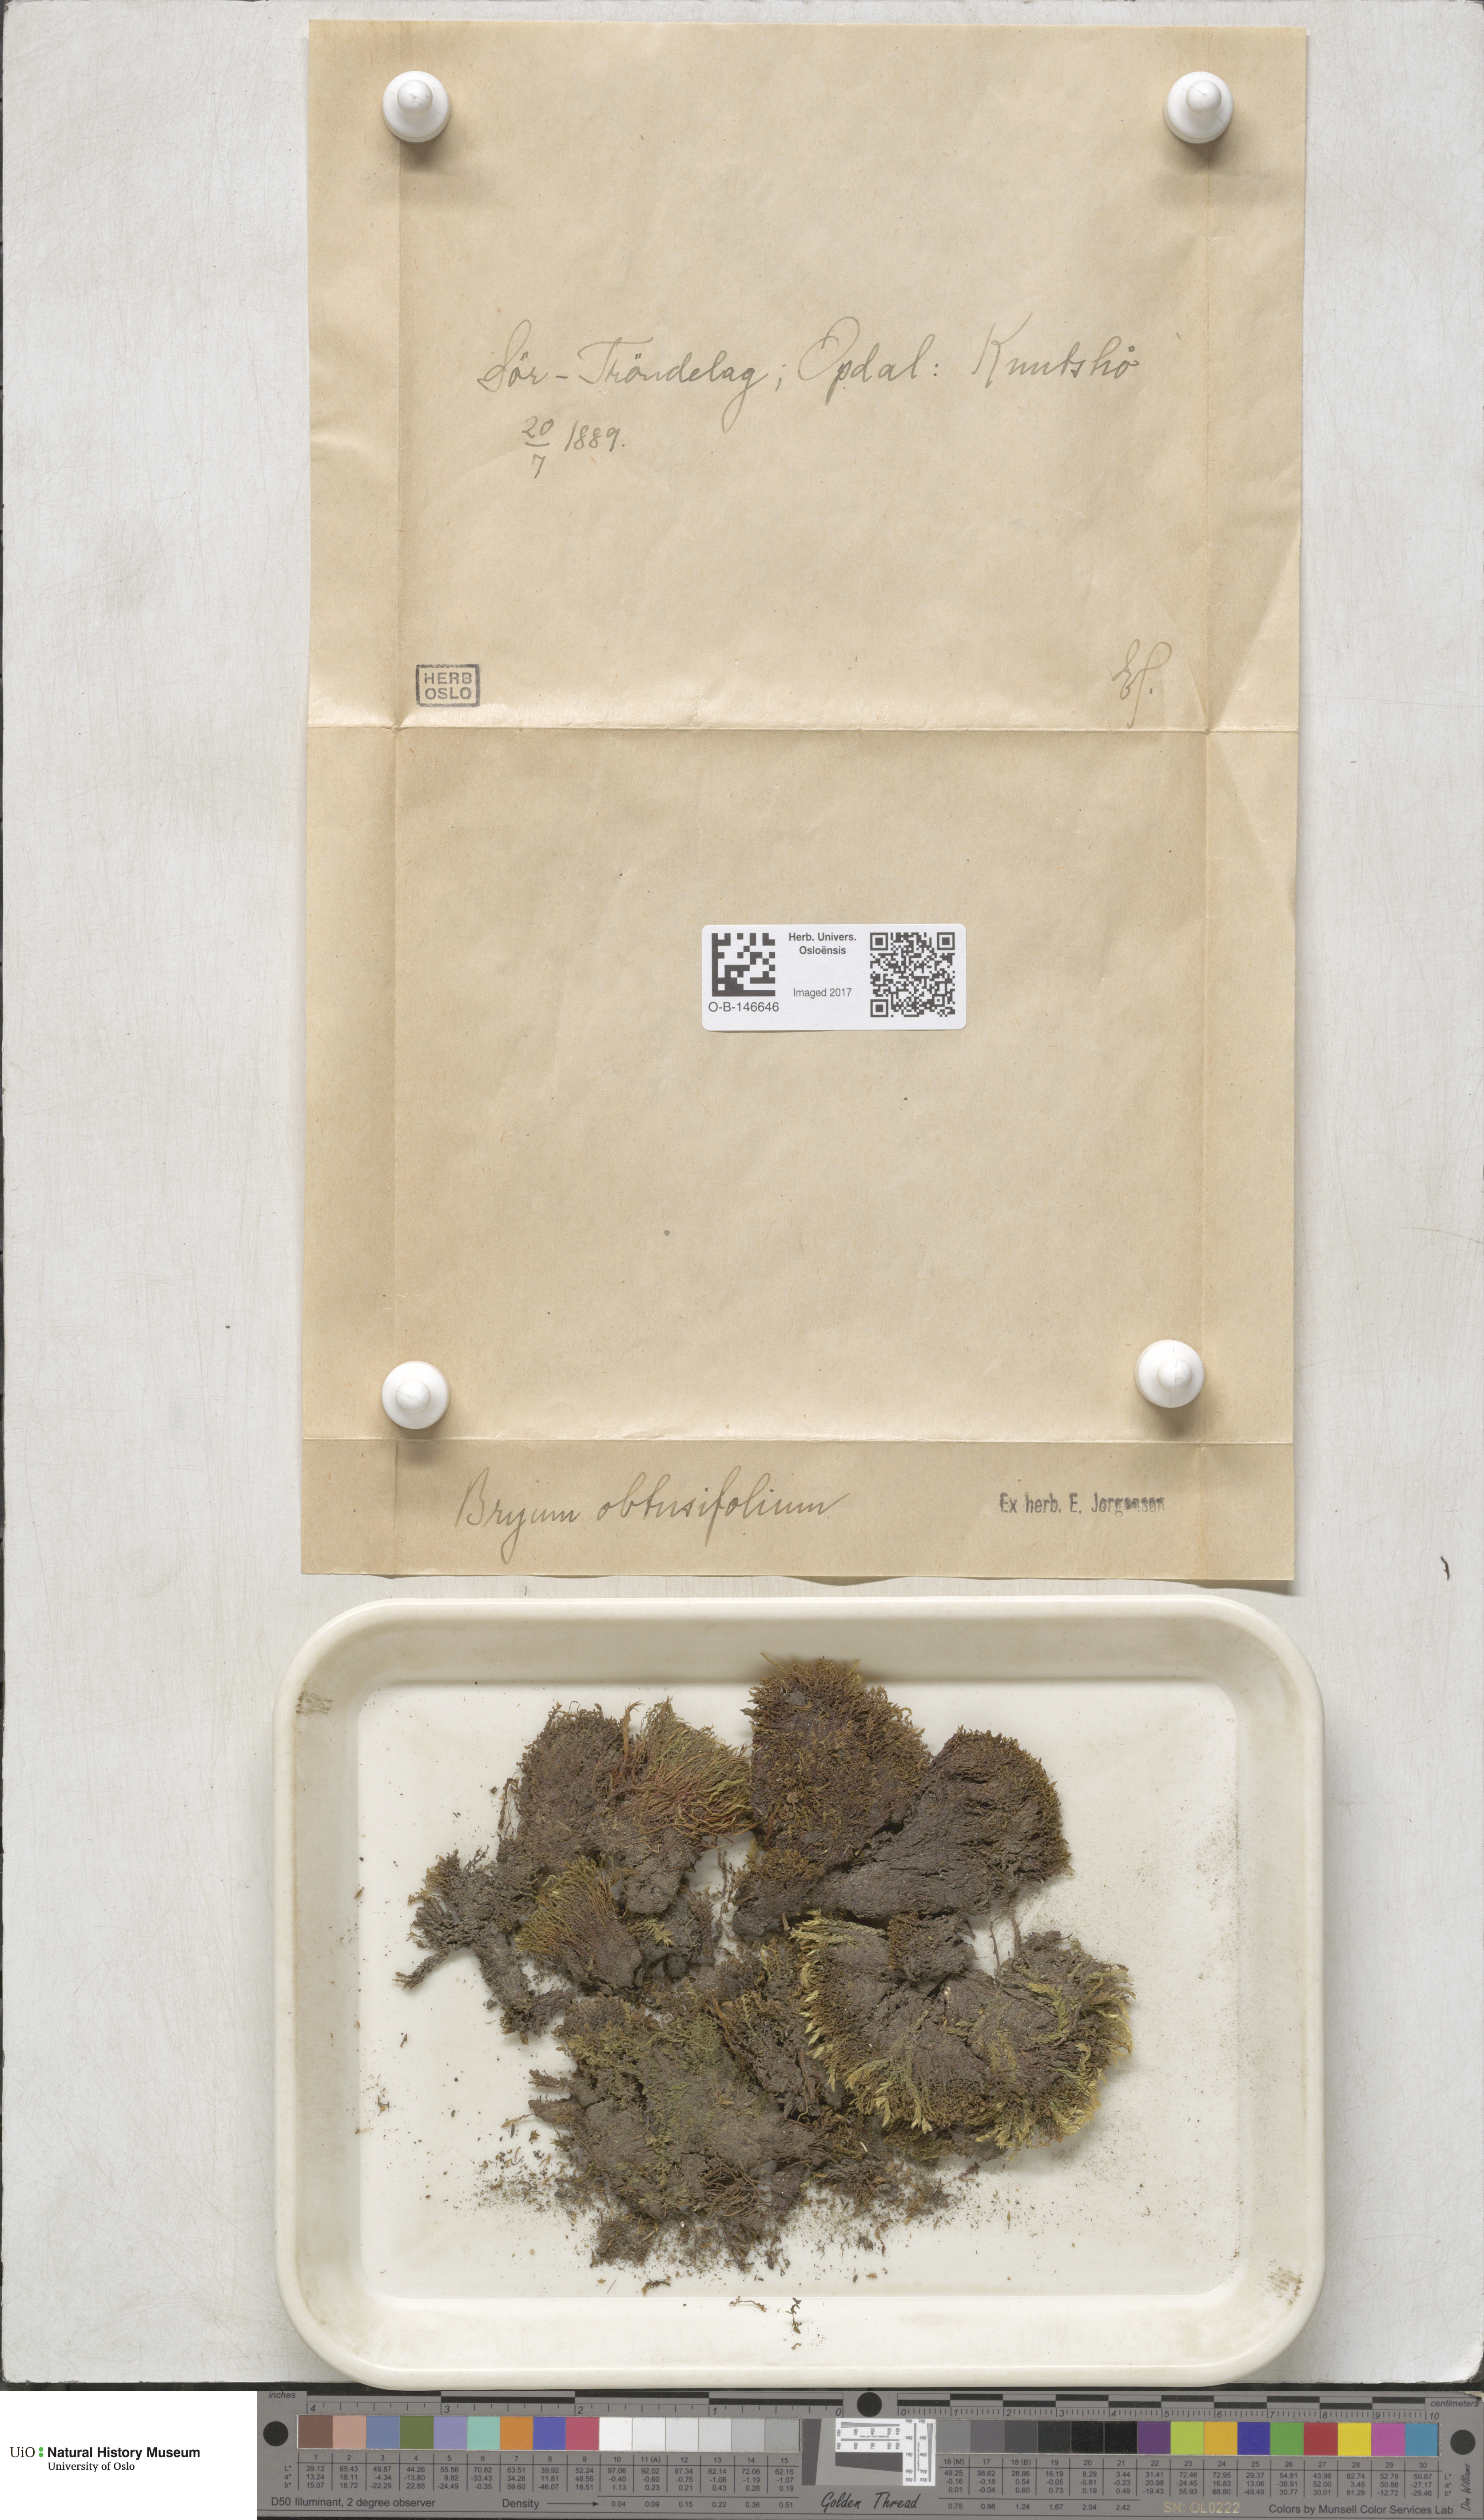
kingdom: Plantae
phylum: Bryophyta
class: Bryopsida
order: Bryales
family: Mniaceae
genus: Pohlia
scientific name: Pohlia obtusifolia
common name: Blunt nodding moss
